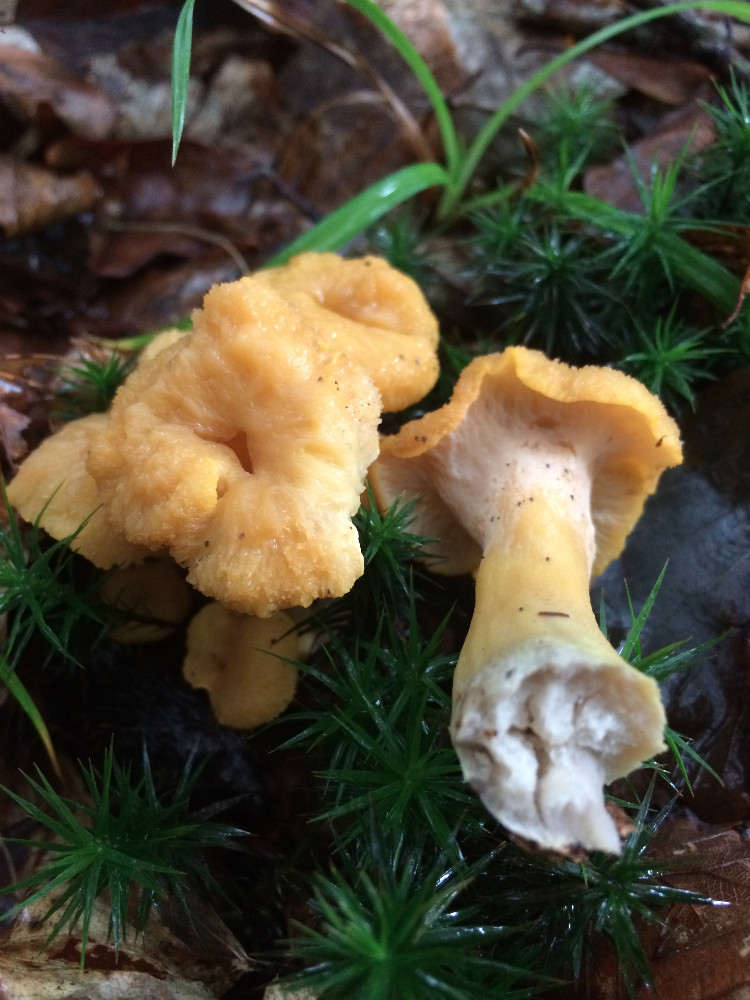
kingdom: Fungi
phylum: Basidiomycota
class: Agaricomycetes
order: Cantharellales
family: Hydnaceae
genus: Cantharellus
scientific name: Cantharellus melanoxeros
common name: sværtende kantarel
